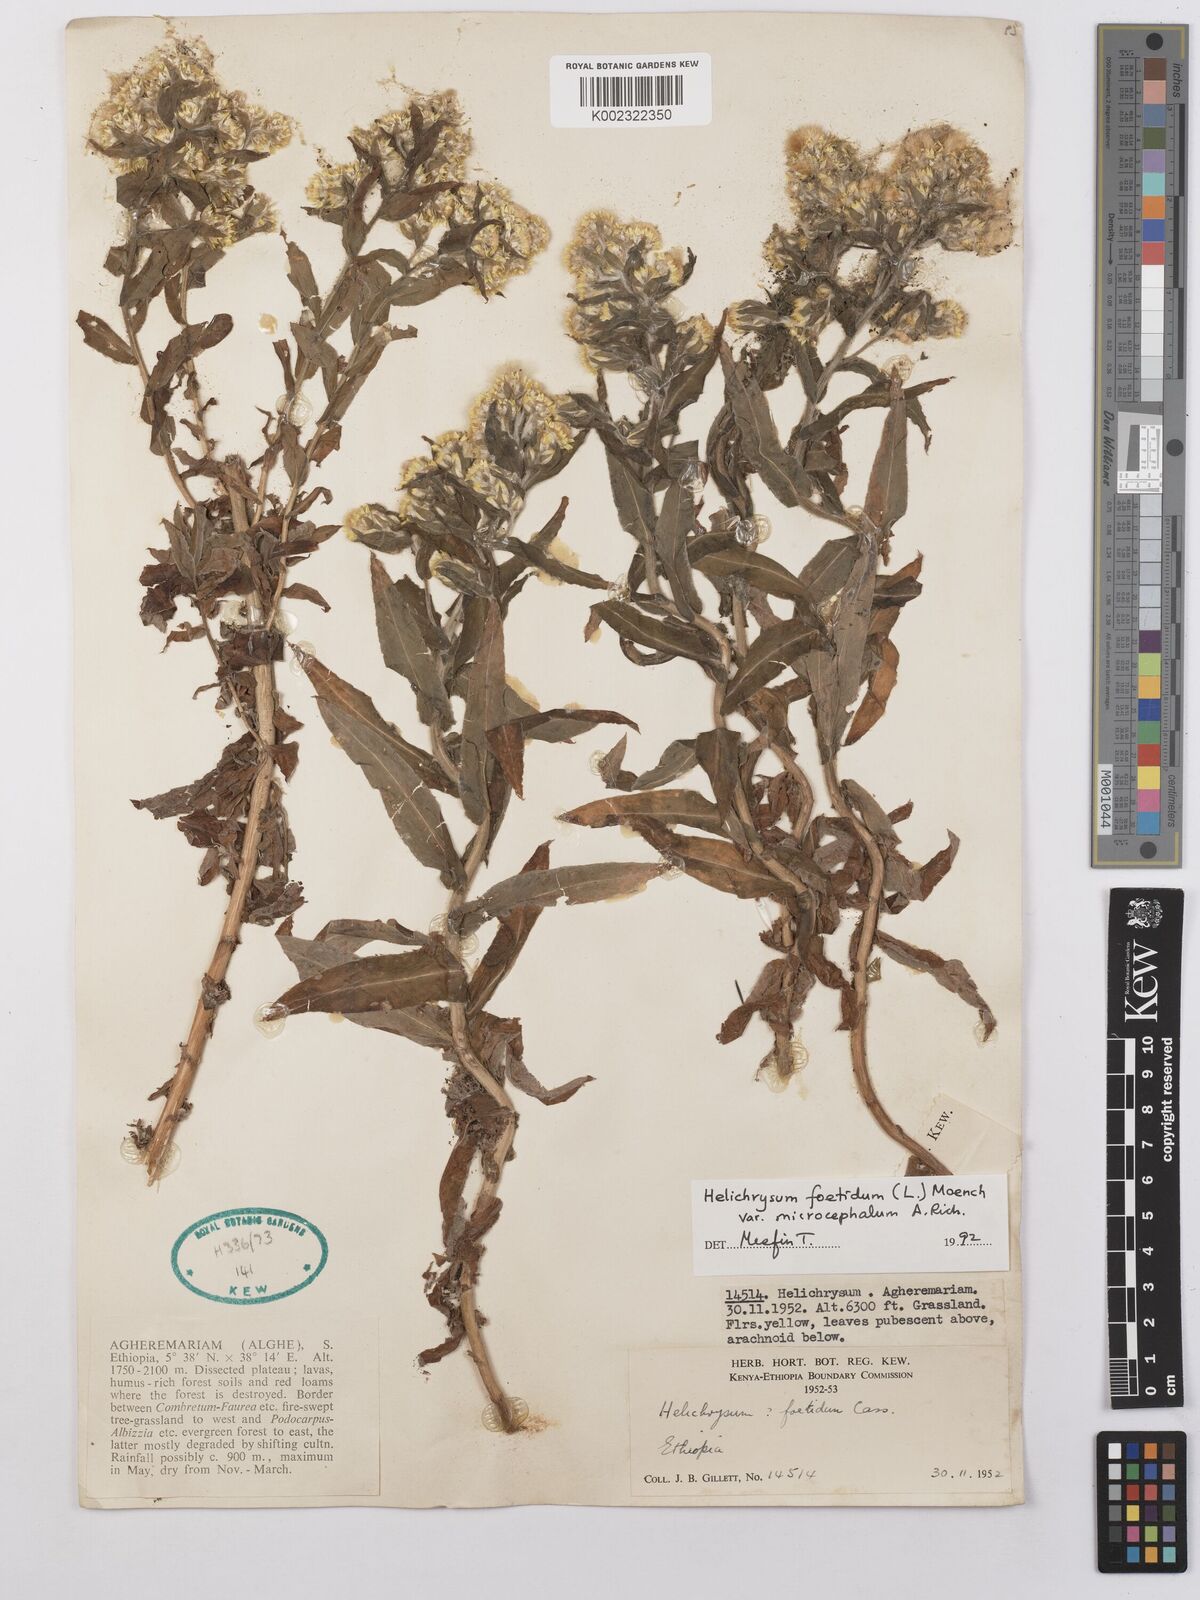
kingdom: Plantae
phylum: Tracheophyta
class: Magnoliopsida
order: Asterales
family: Asteraceae
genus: Helichrysum
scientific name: Helichrysum foetidum
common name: Stinking everlasting
